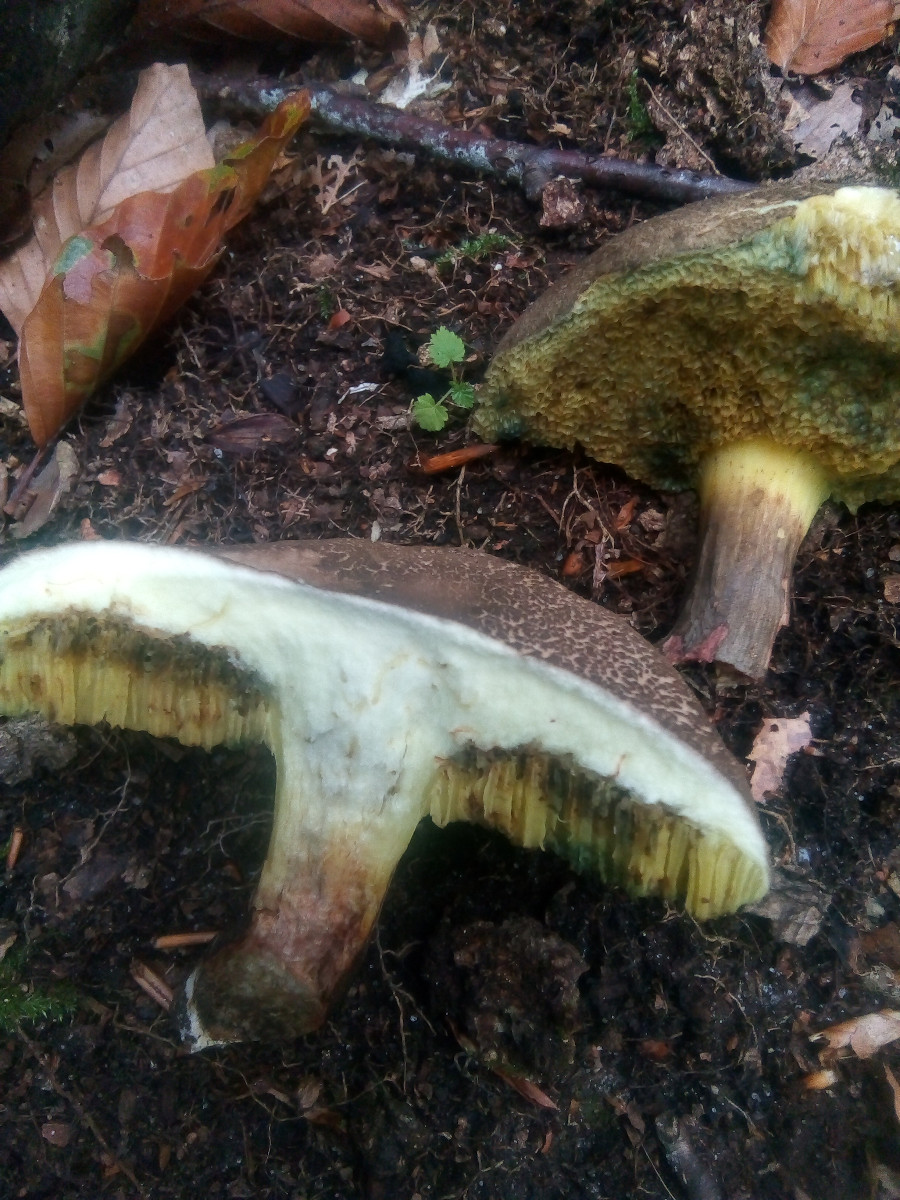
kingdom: Fungi
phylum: Basidiomycota
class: Agaricomycetes
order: Boletales
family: Boletaceae
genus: Xerocomellus
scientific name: Xerocomellus porosporus
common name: hvidsprukken rørhat
